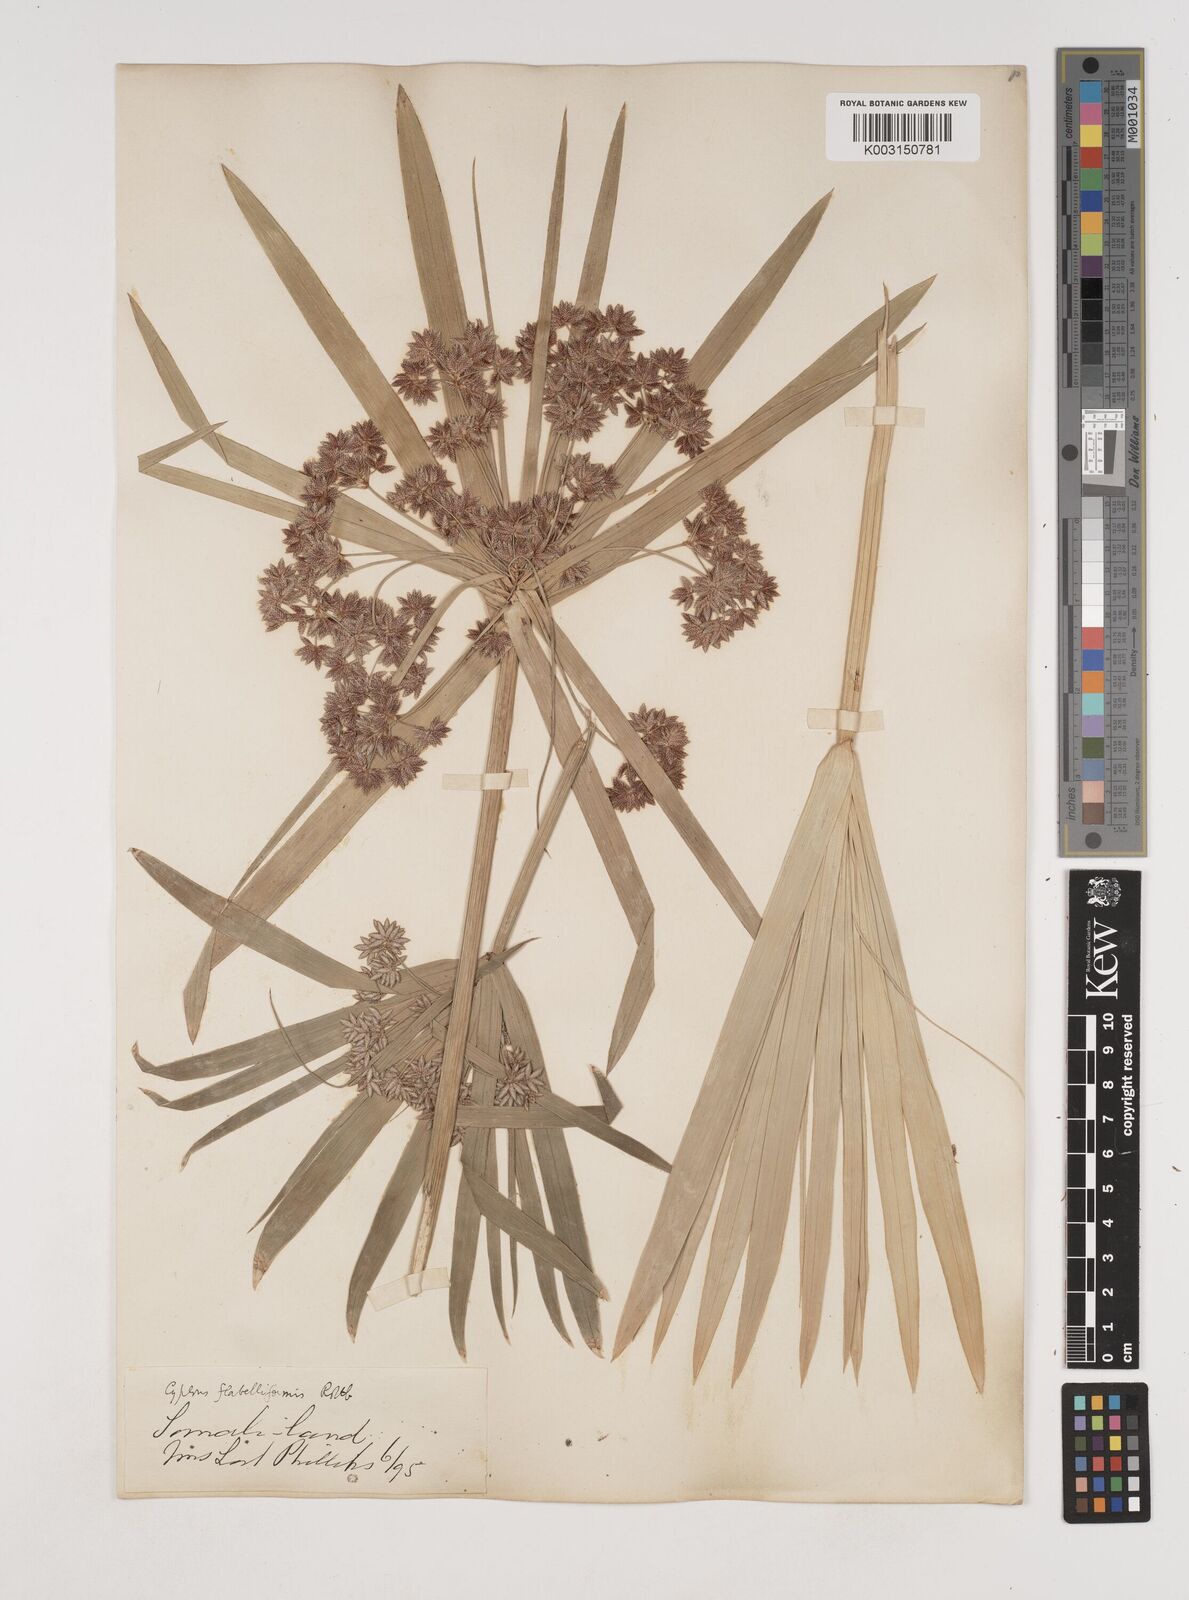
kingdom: Plantae
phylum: Tracheophyta
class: Liliopsida
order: Poales
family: Cyperaceae
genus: Cyperus
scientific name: Cyperus alternifolius
